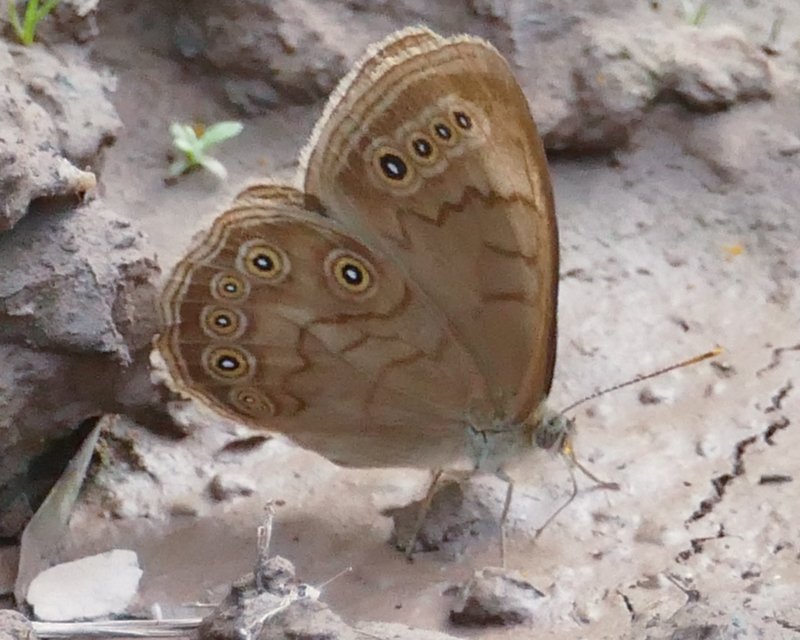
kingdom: Animalia
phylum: Arthropoda
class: Insecta
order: Lepidoptera
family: Nymphalidae
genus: Lethe
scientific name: Lethe eurydice
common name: Eyed Brown
